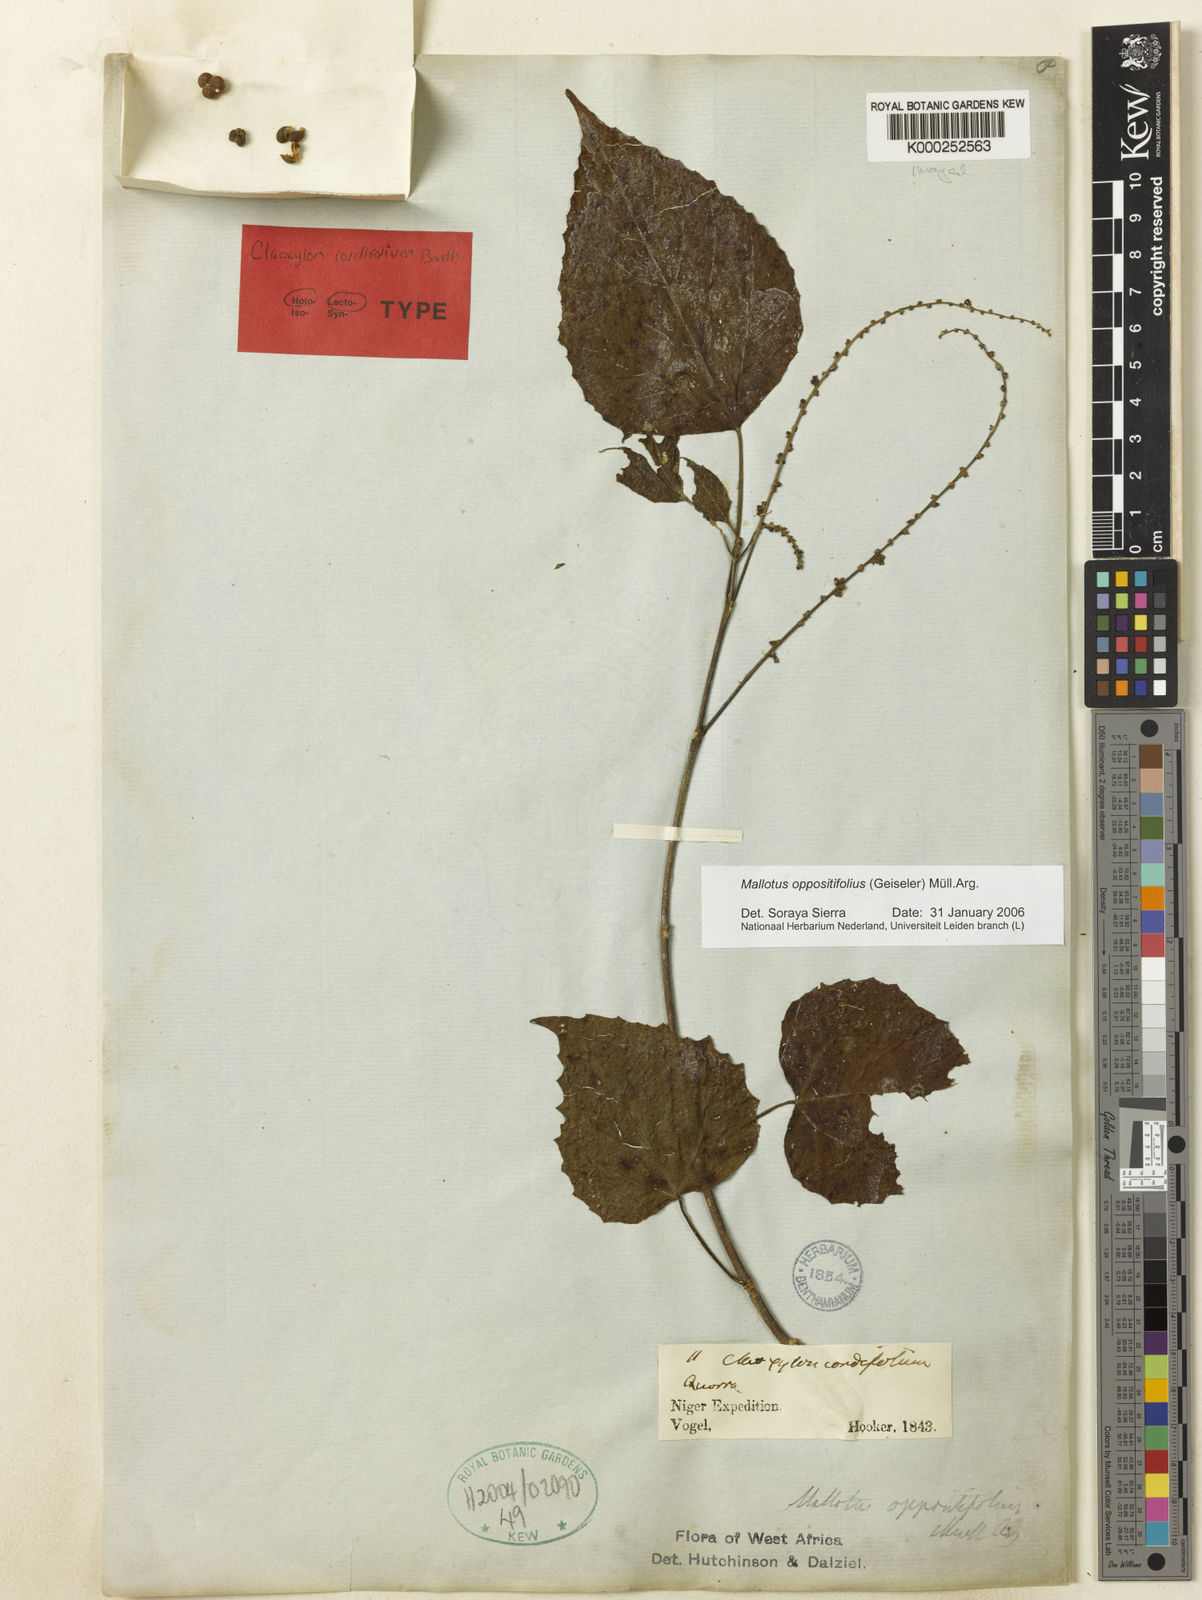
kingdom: Plantae
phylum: Tracheophyta
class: Magnoliopsida
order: Malpighiales
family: Euphorbiaceae
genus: Mallotus
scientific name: Mallotus
